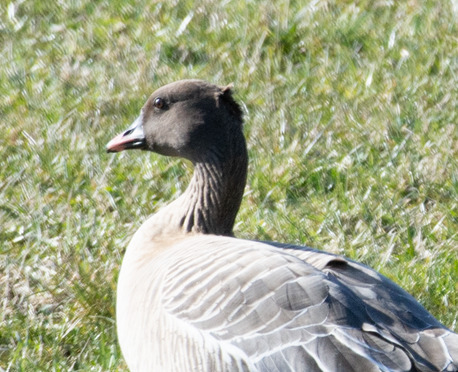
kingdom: Animalia
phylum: Chordata
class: Aves
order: Anseriformes
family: Anatidae
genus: Anser
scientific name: Anser brachyrhynchus
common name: Kortnæbbet gås
